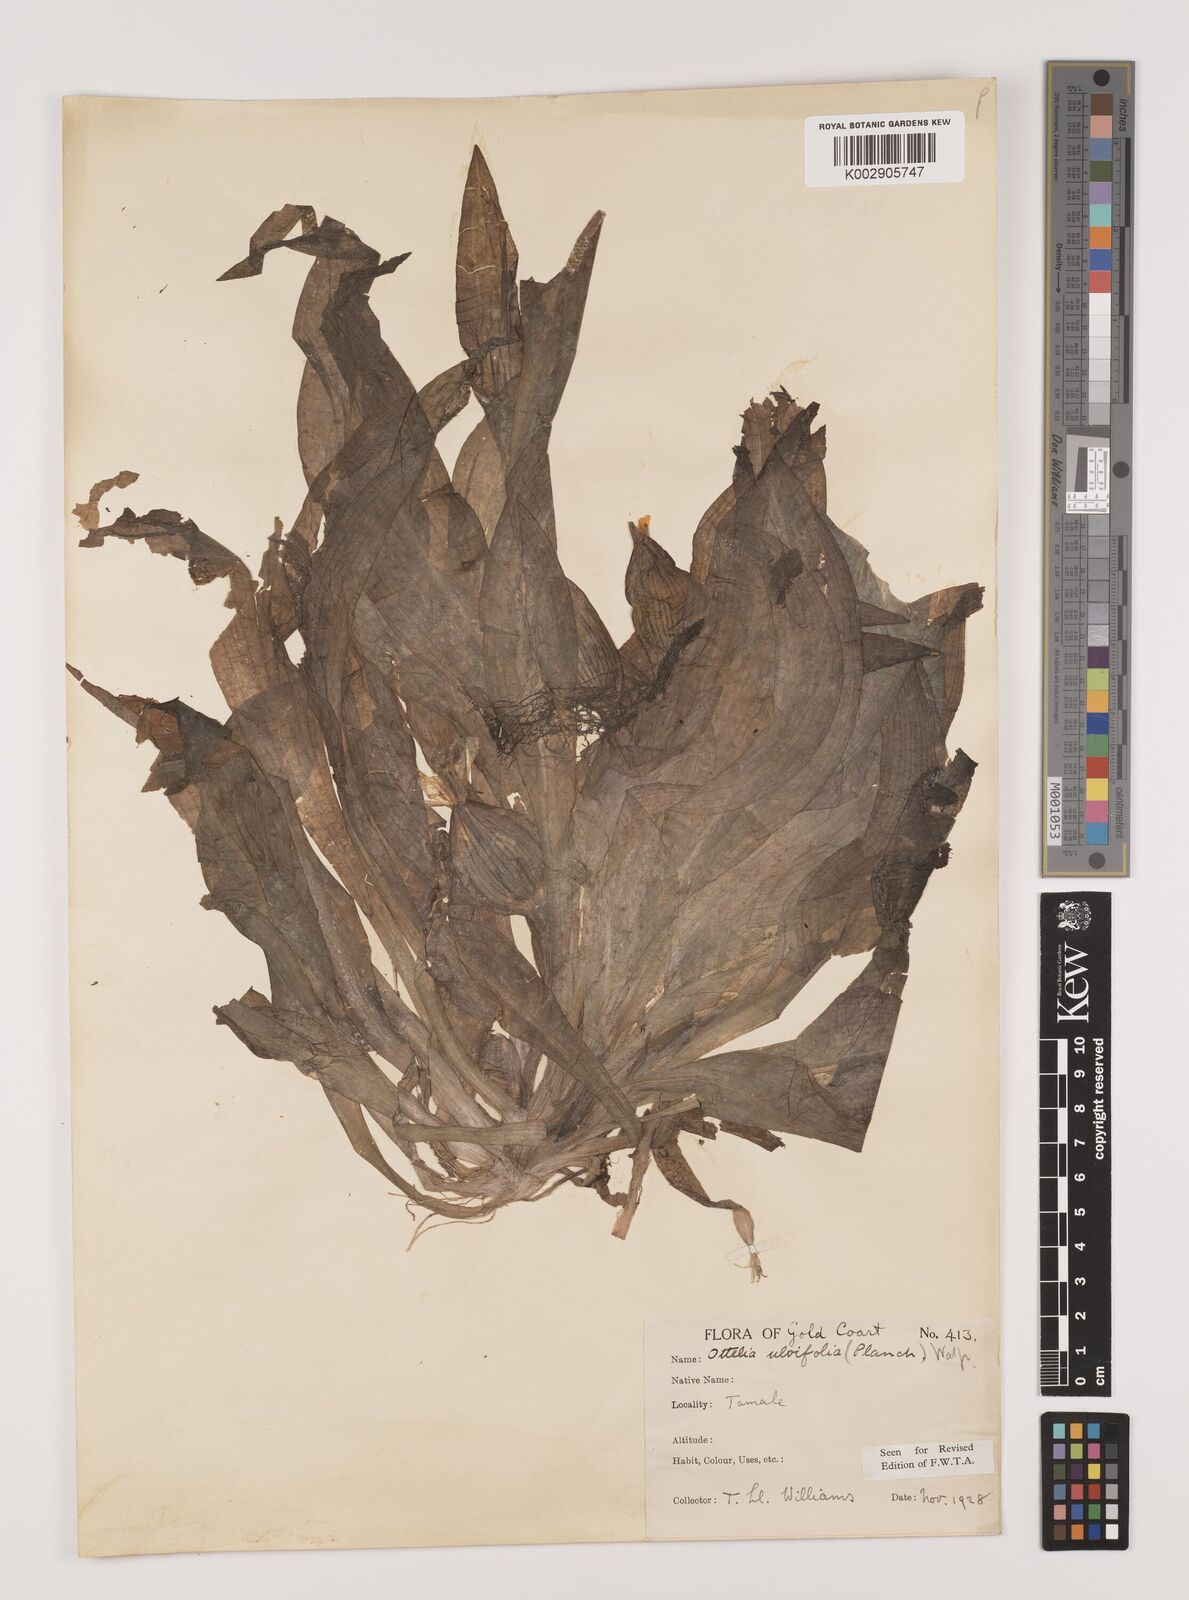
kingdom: Plantae
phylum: Tracheophyta
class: Liliopsida
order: Alismatales
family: Hydrocharitaceae
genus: Ottelia
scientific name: Ottelia ulvifolia
